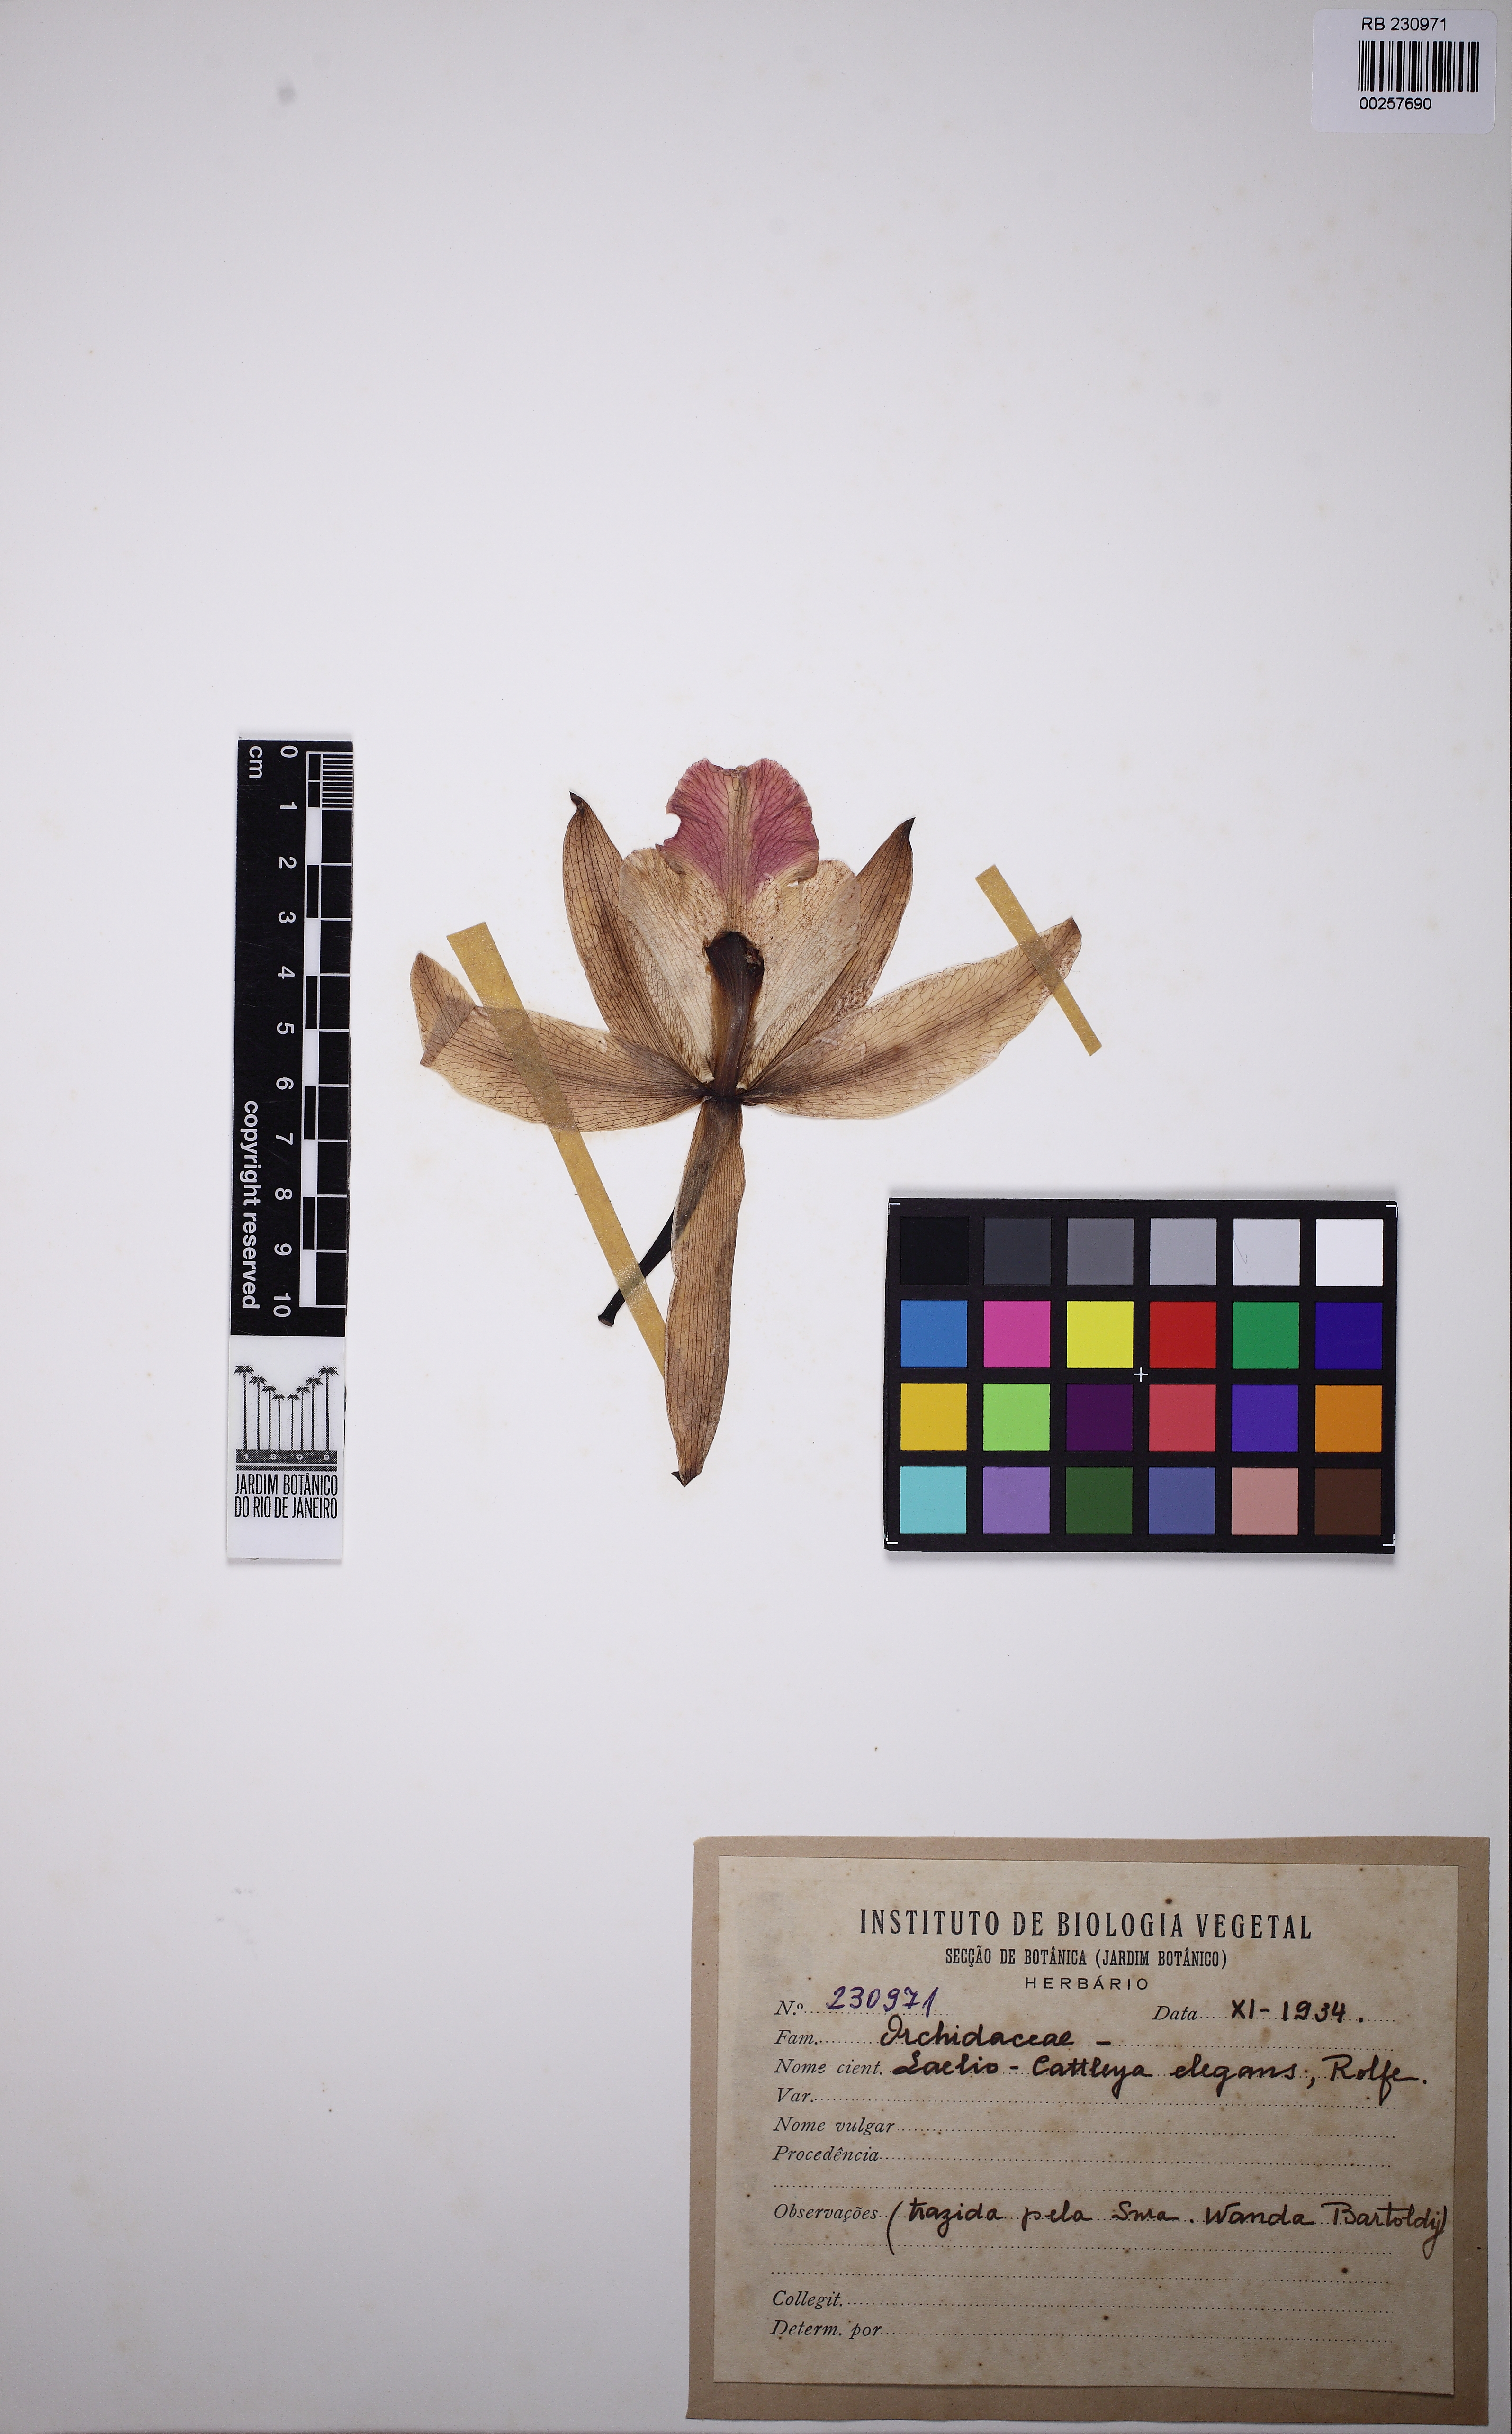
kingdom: Plantae
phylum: Tracheophyta
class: Liliopsida
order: Asparagales
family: Orchidaceae
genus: Cattleya
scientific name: Cattleya elegans
